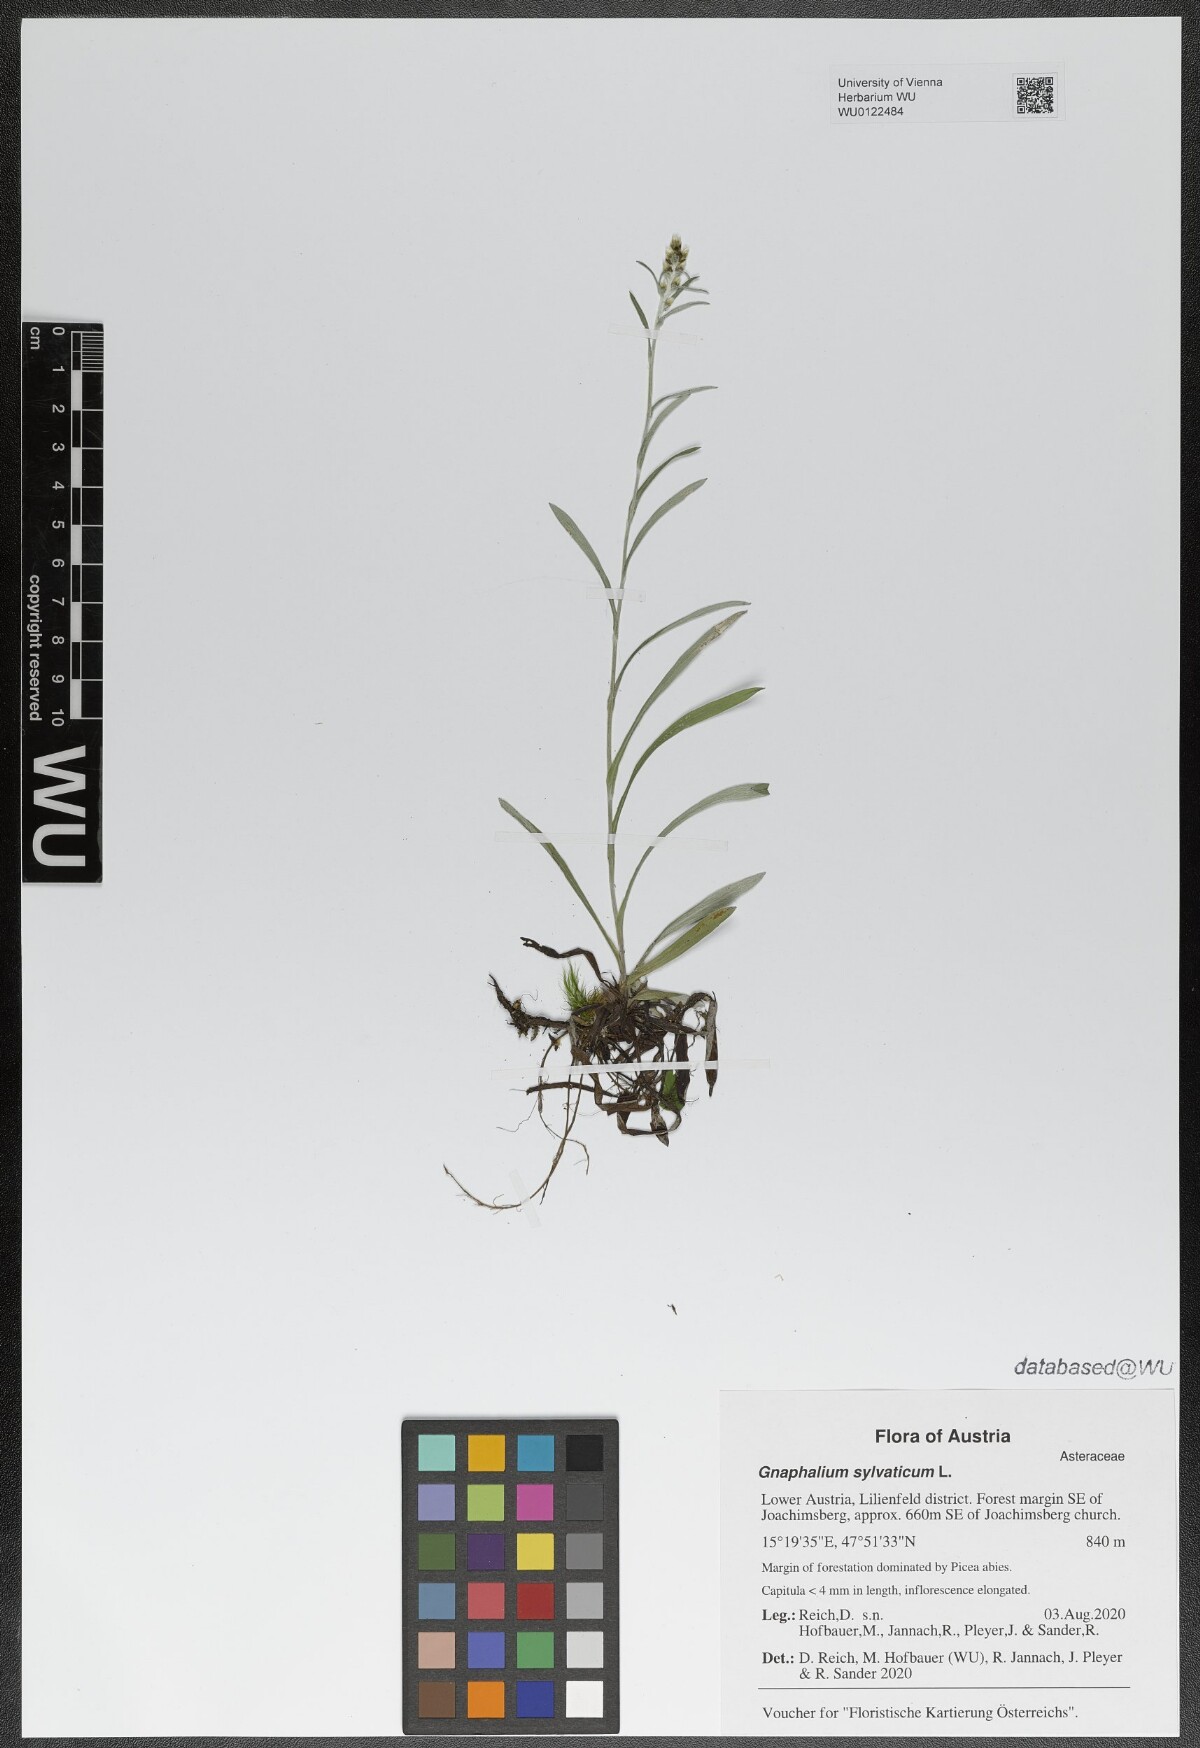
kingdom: Plantae
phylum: Tracheophyta
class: Magnoliopsida
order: Asterales
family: Asteraceae
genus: Omalotheca
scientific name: Omalotheca sylvatica
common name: Heath cudweed
